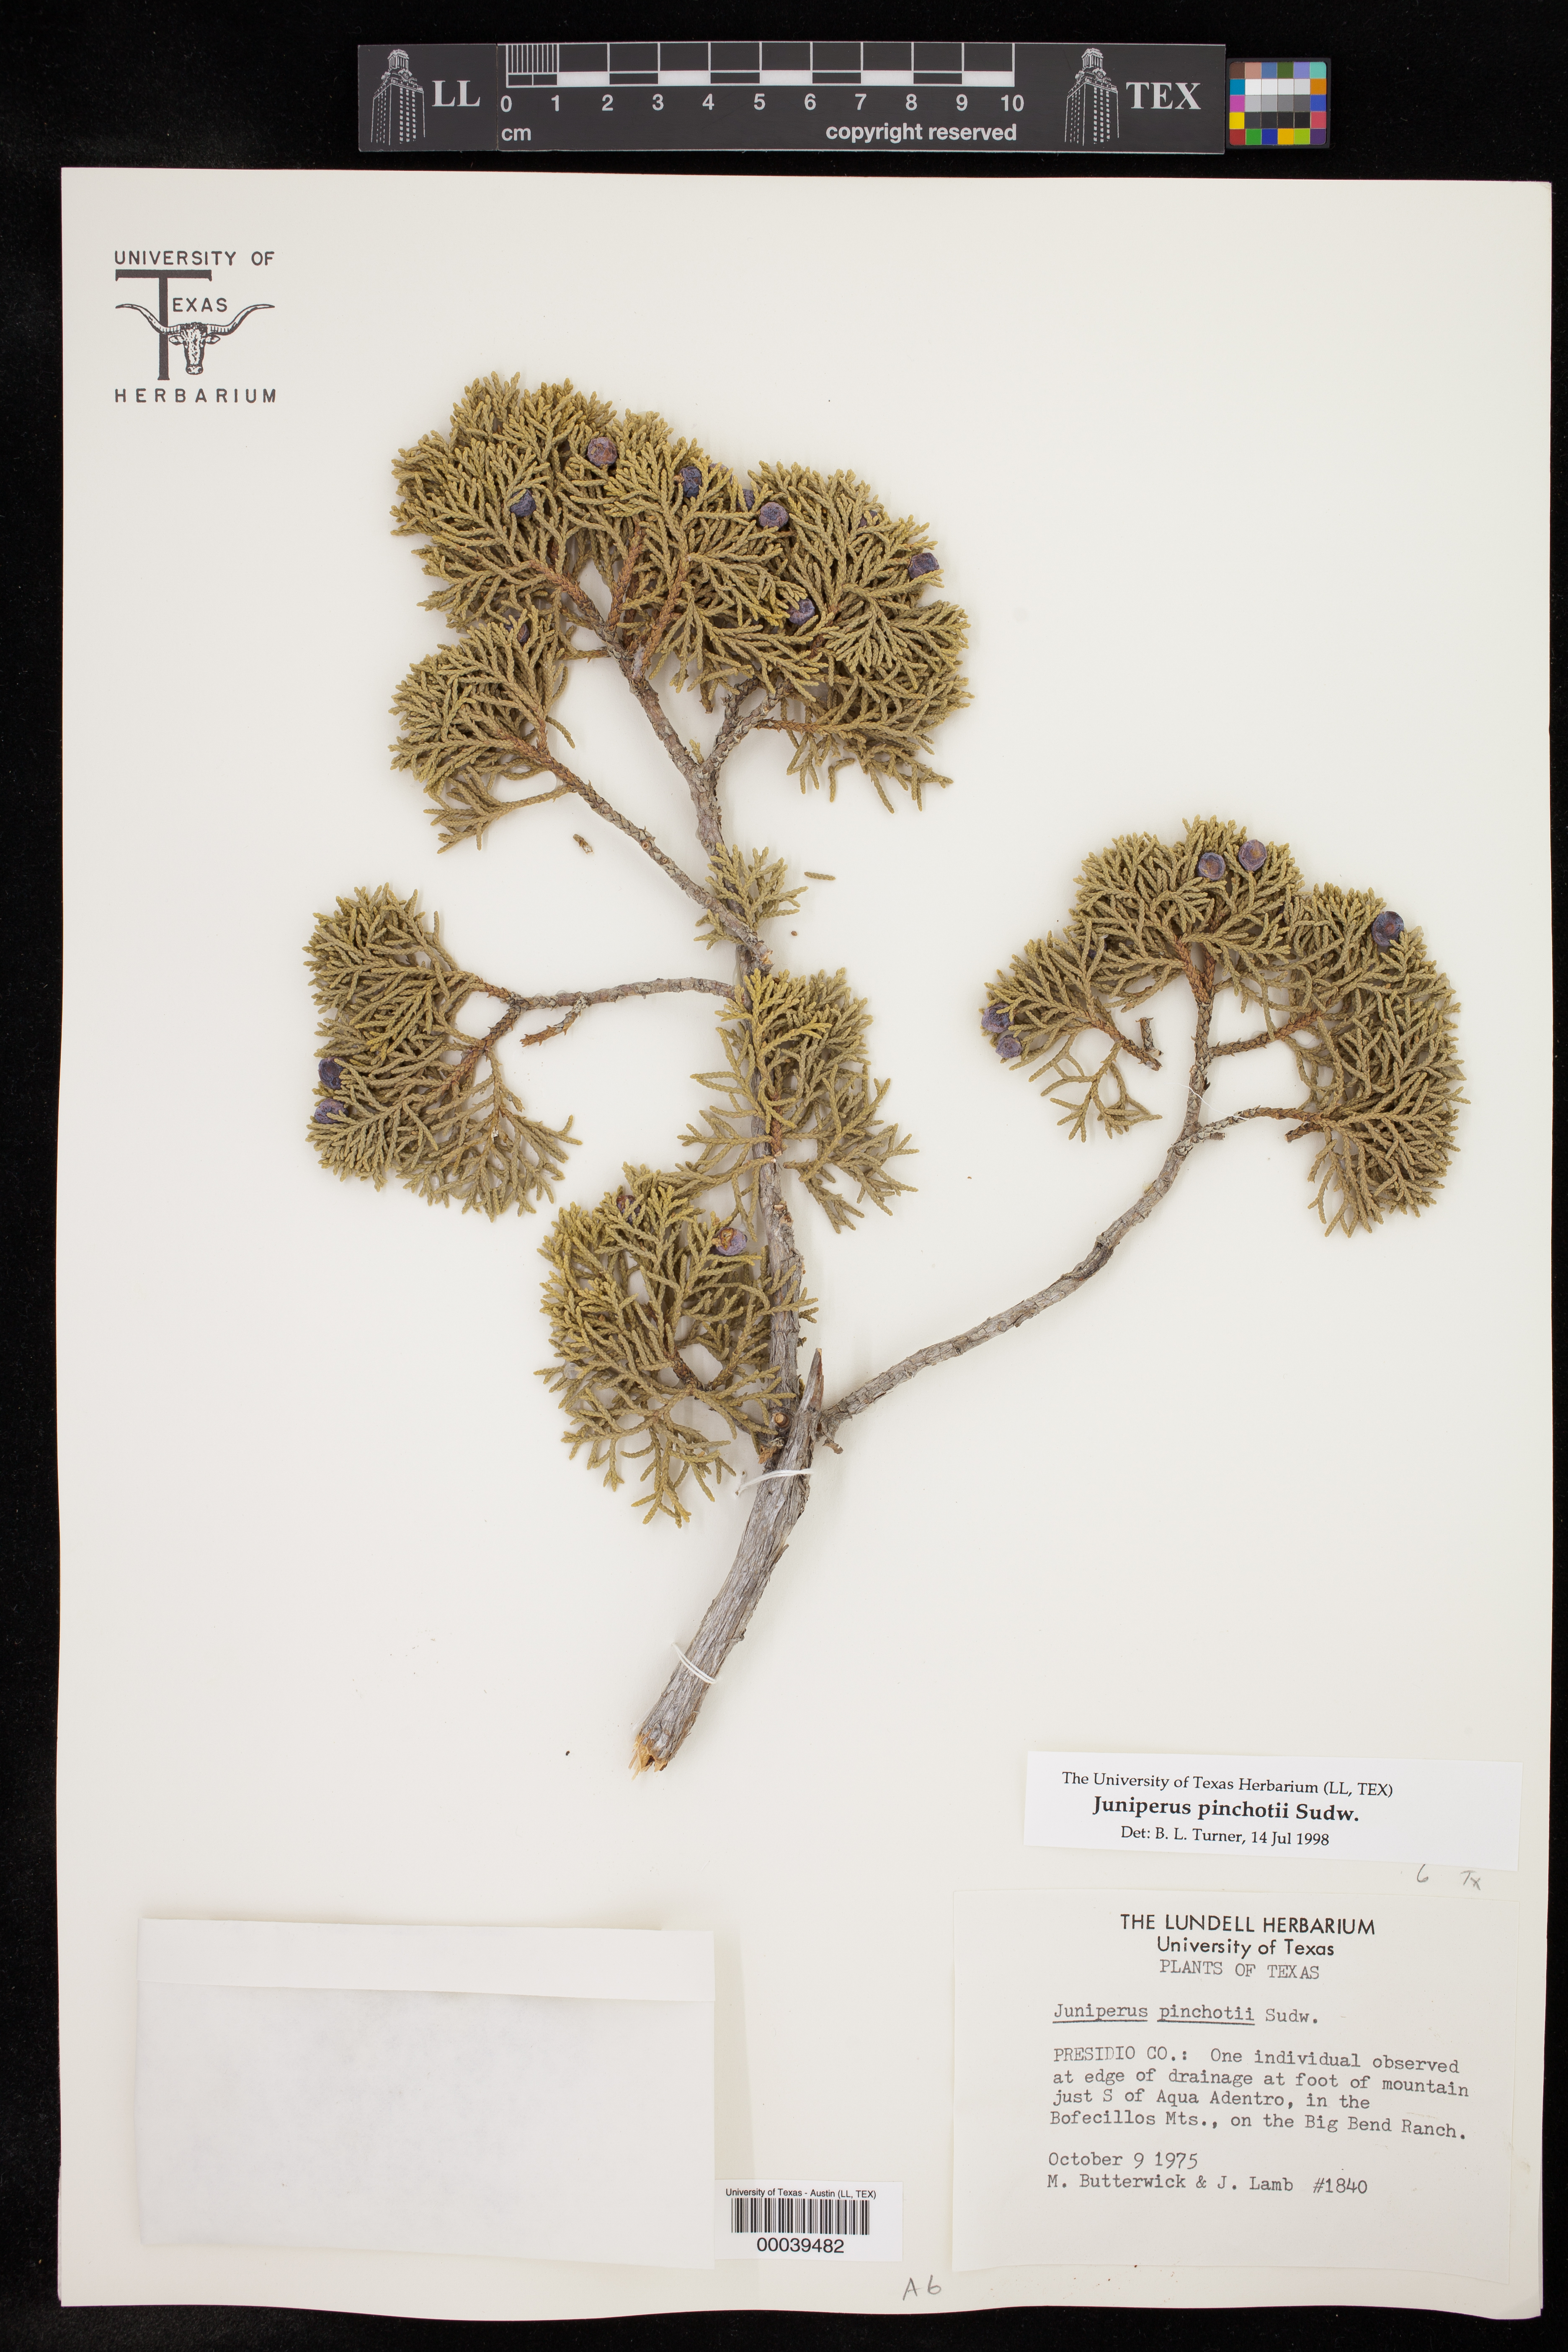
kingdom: Plantae
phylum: Tracheophyta
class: Pinopsida
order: Pinales
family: Cupressaceae
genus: Juniperus
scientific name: Juniperus pinchotii
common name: Pinchot juniper
